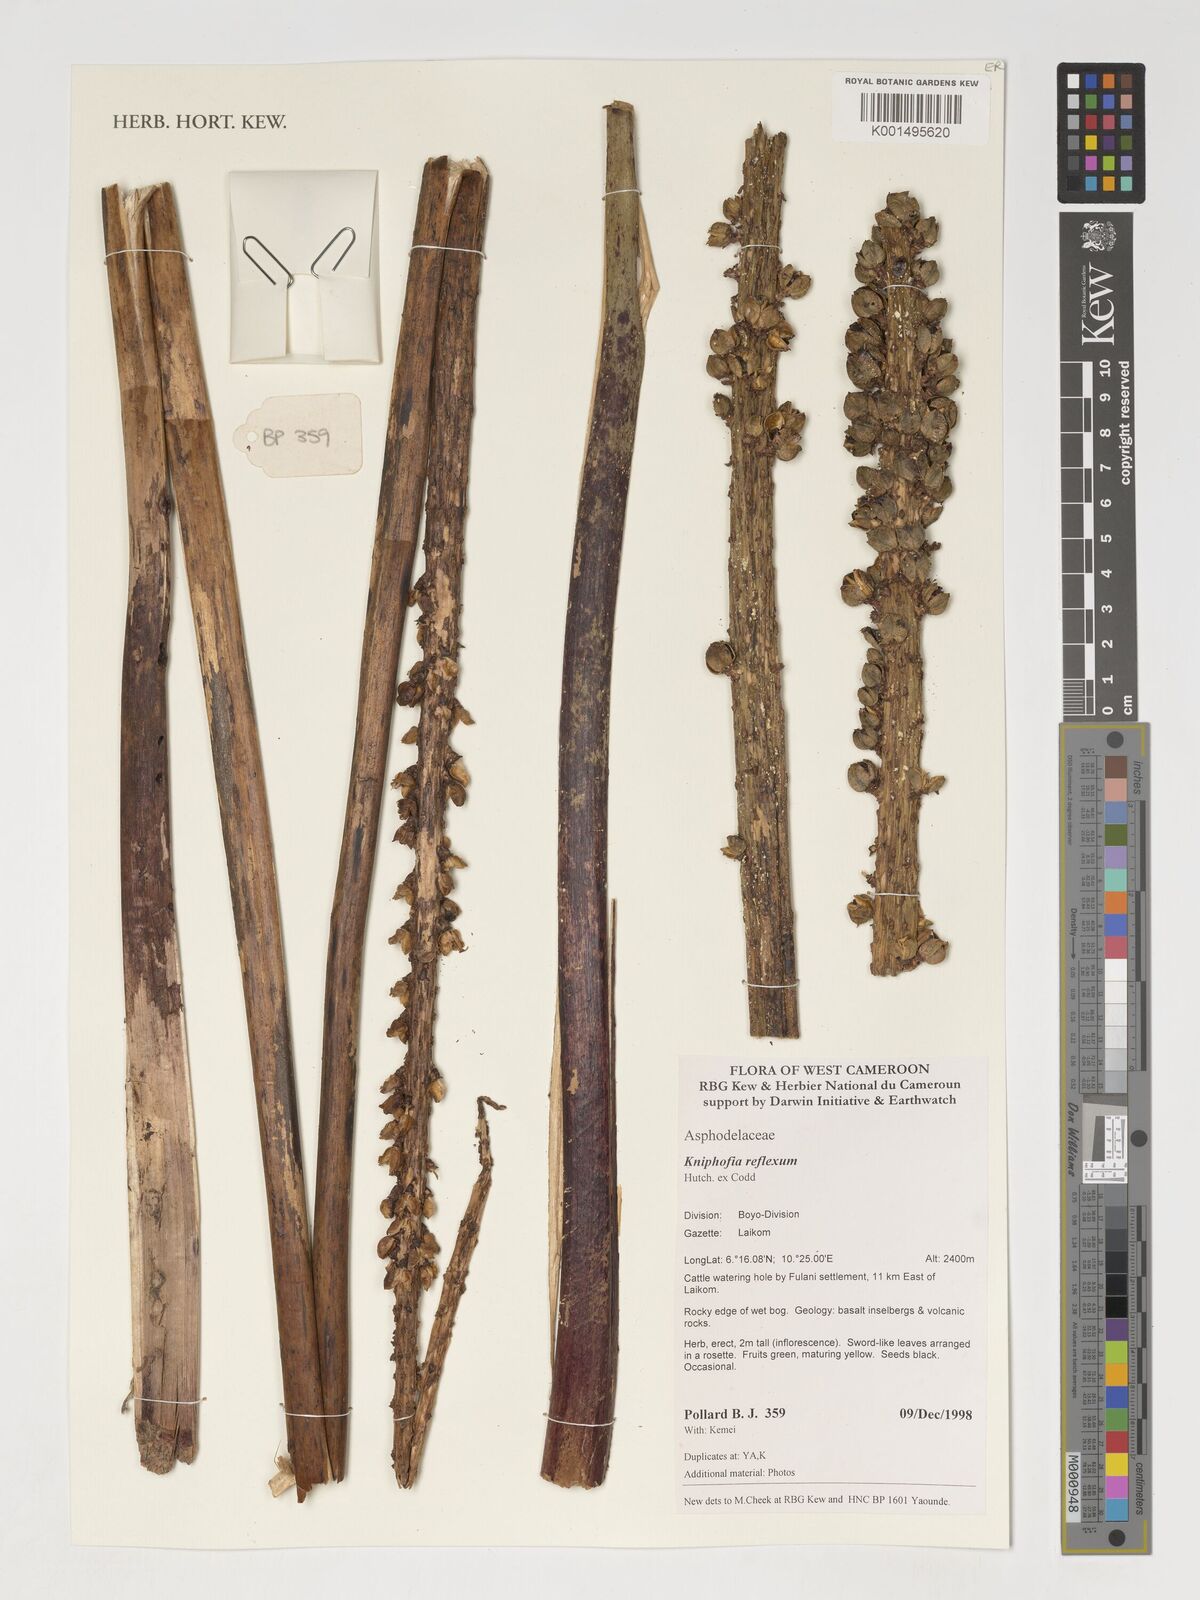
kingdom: Plantae
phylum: Tracheophyta
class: Liliopsida
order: Asparagales
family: Asphodelaceae
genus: Kniphofia
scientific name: Kniphofia reflexa
